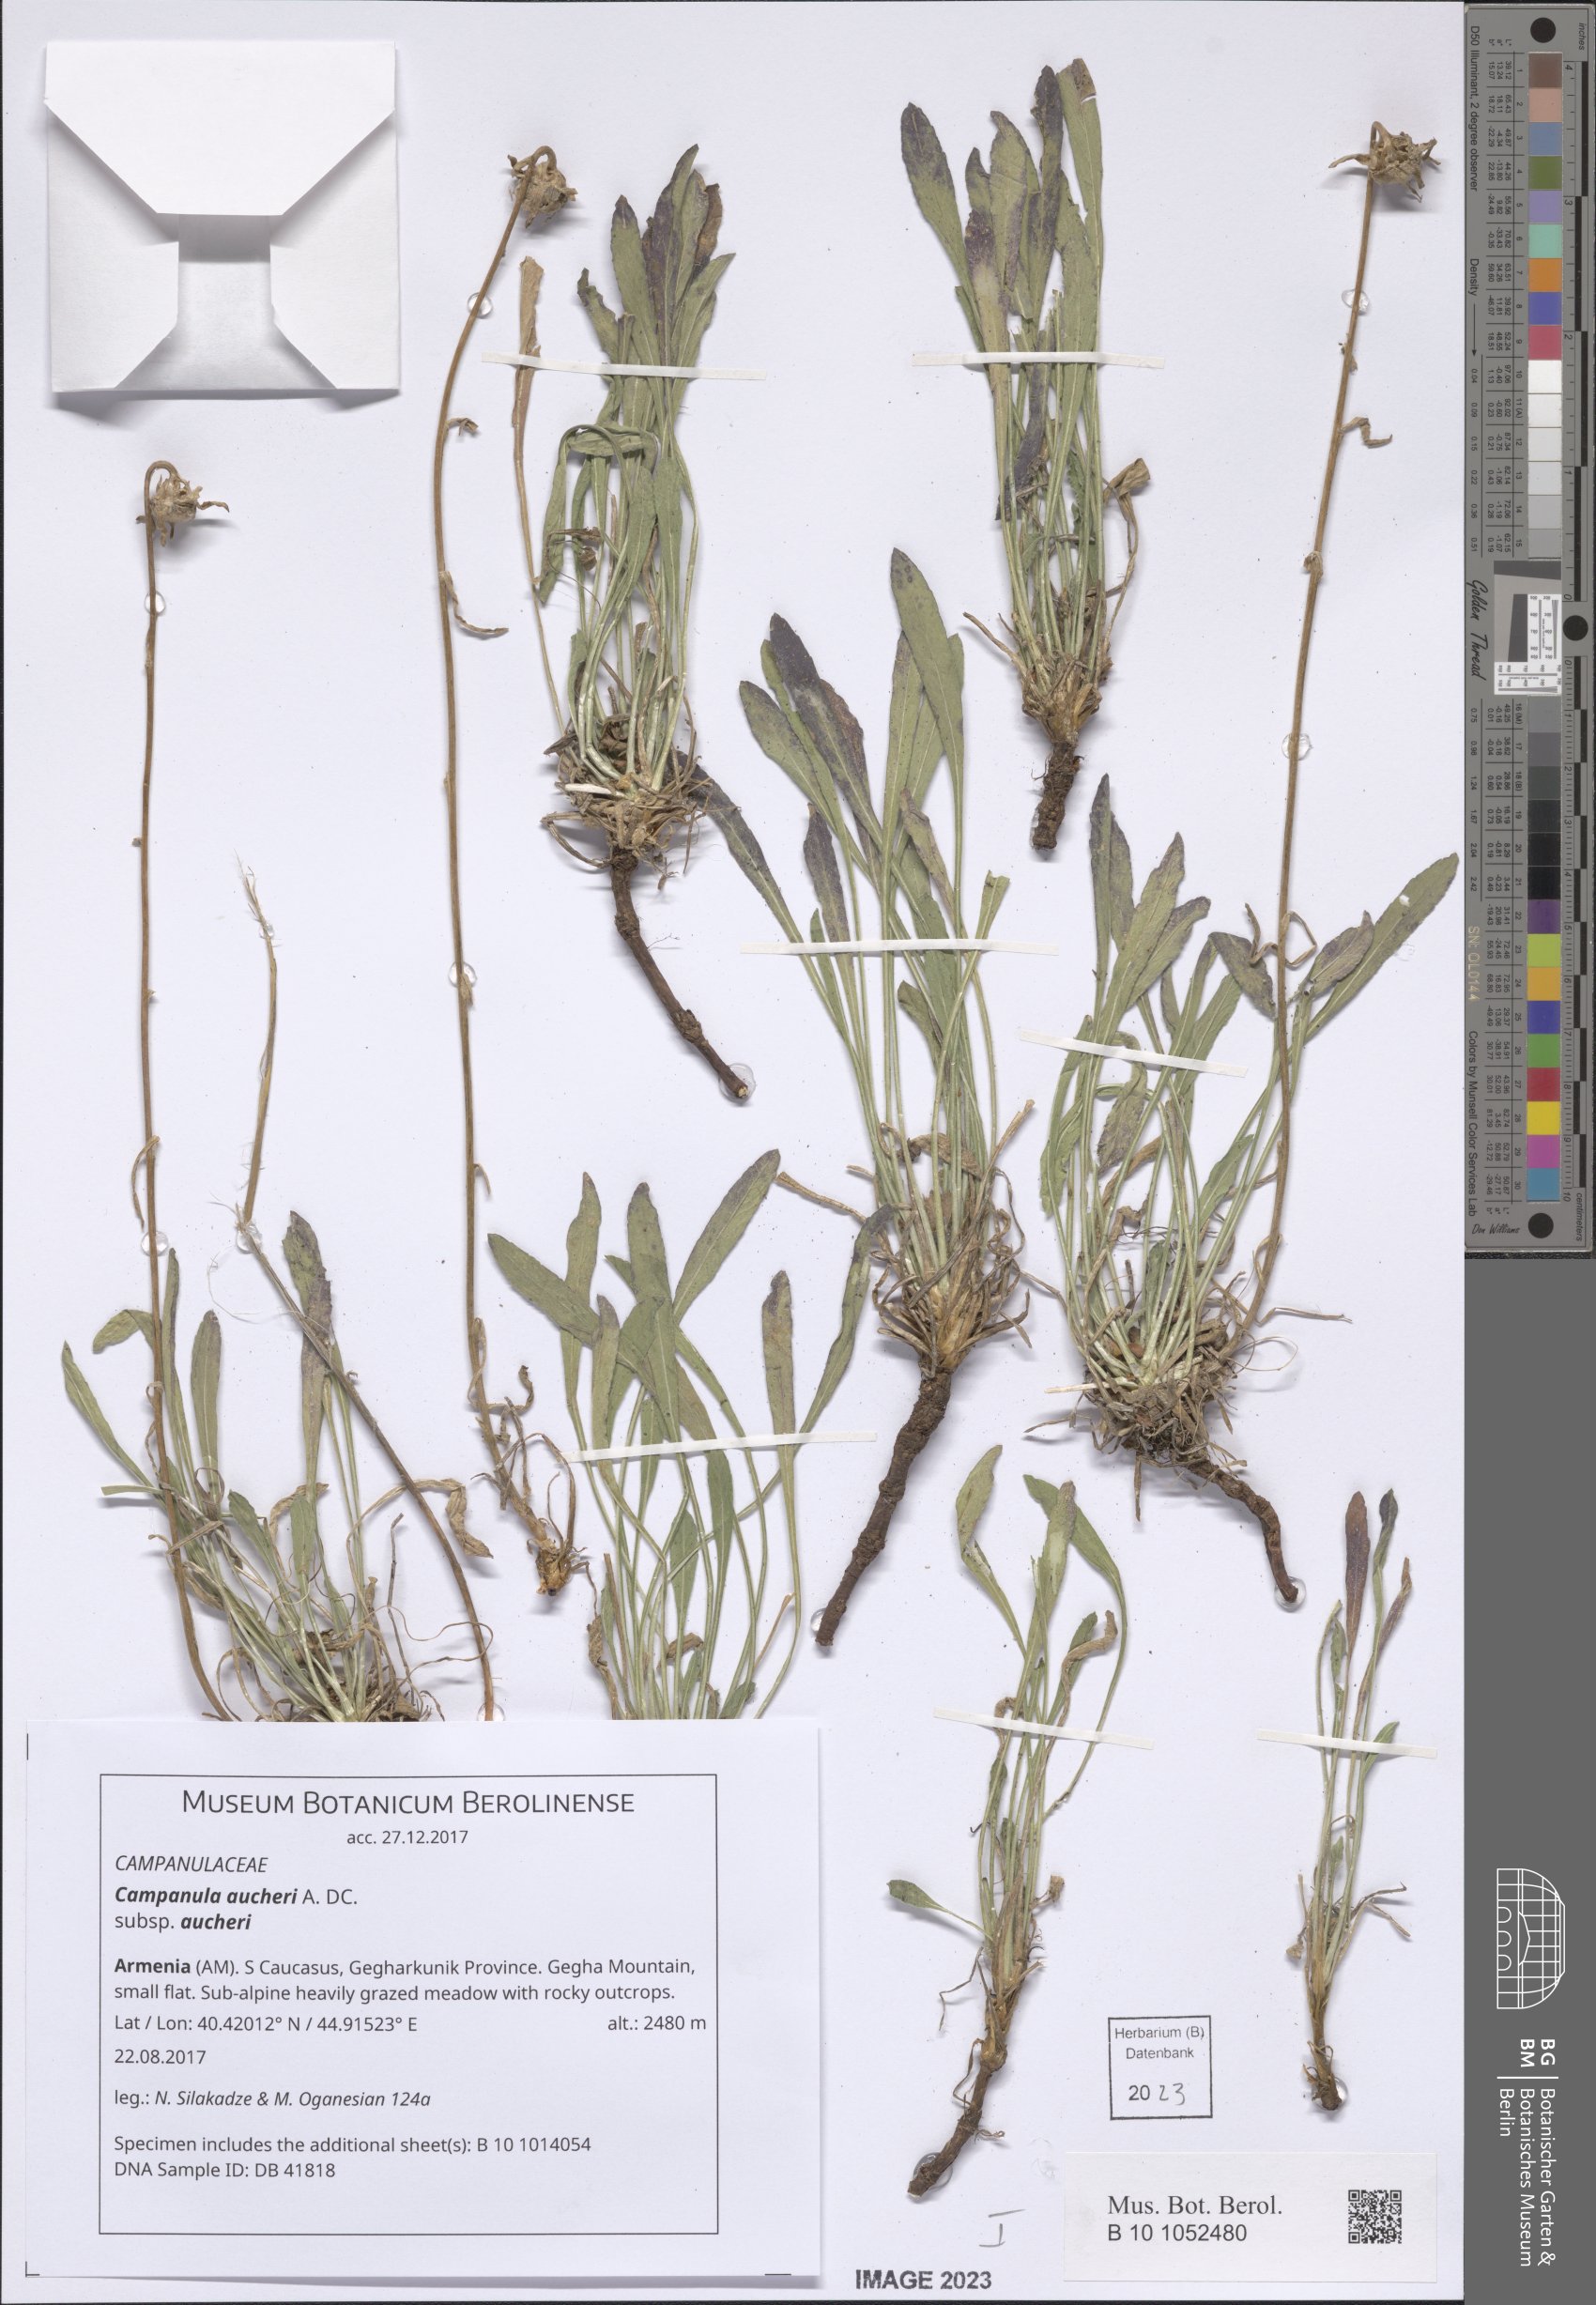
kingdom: Plantae
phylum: Tracheophyta
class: Magnoliopsida
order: Asterales
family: Campanulaceae
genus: Campanula
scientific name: Campanula saxifraga
